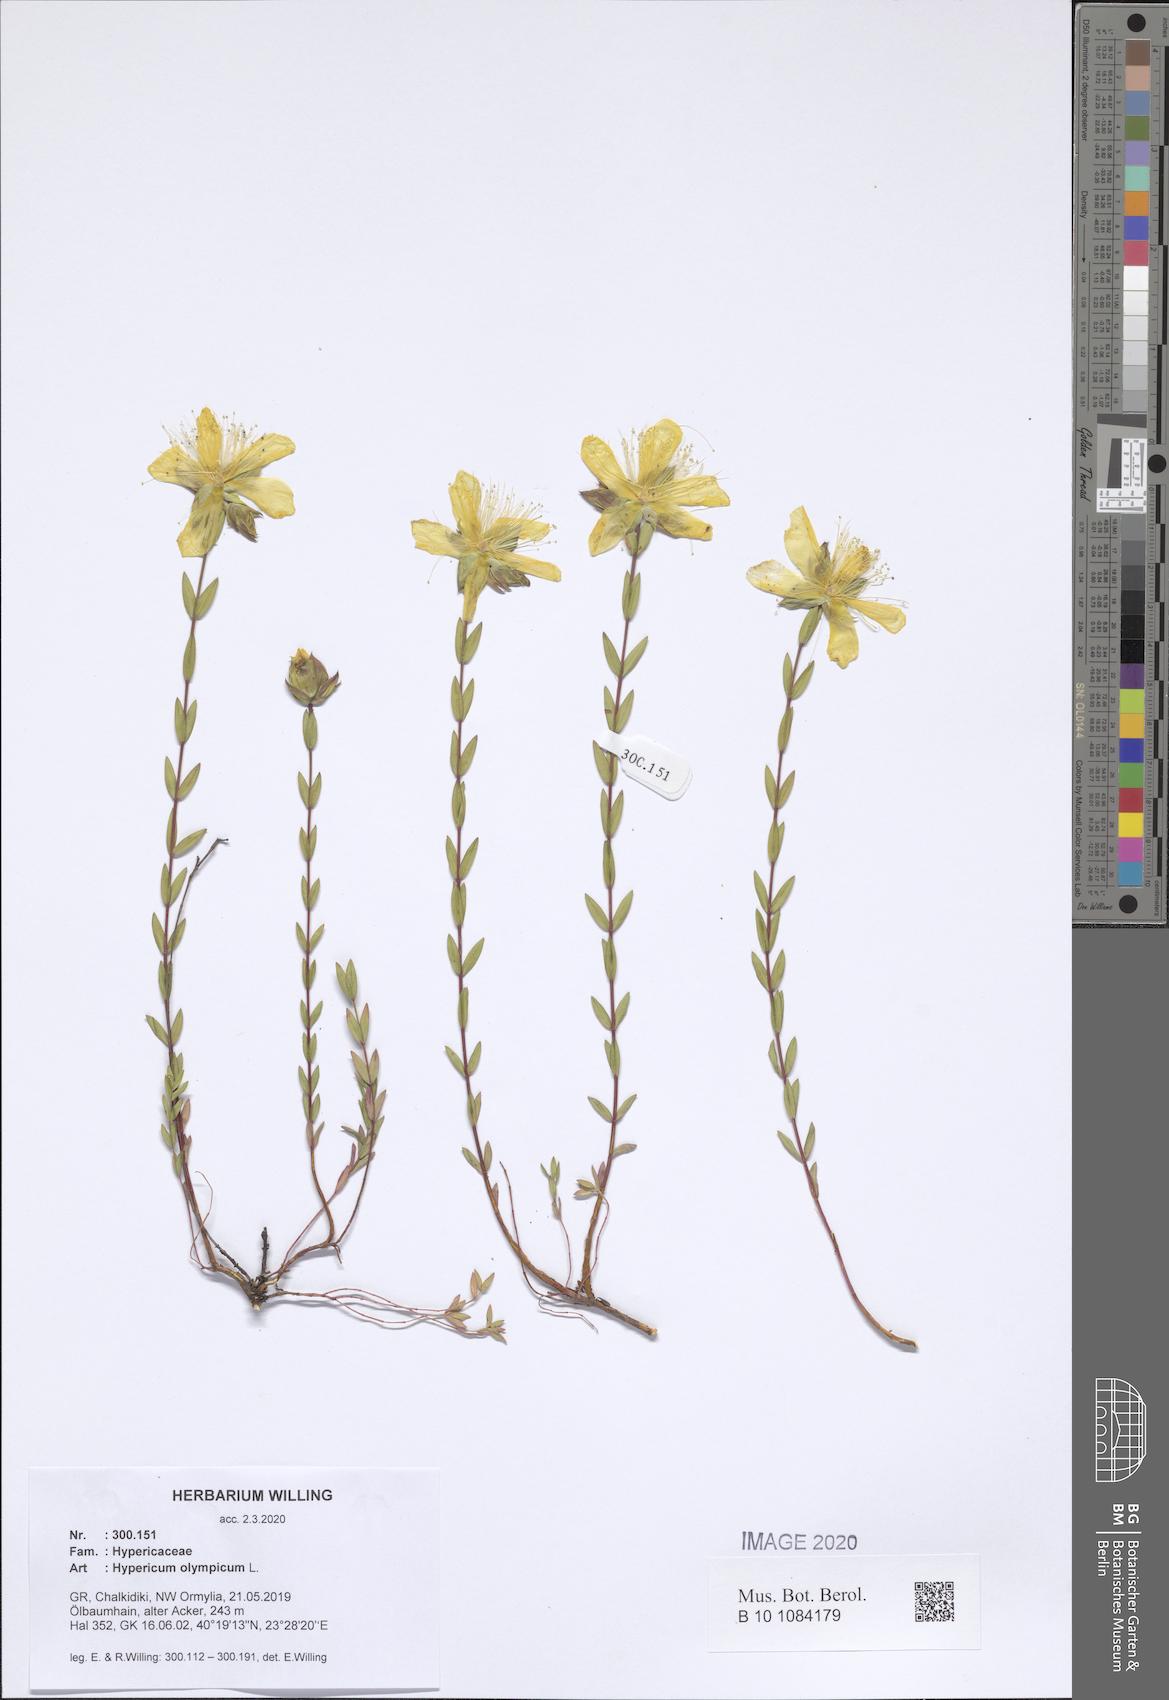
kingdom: Plantae
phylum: Tracheophyta
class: Magnoliopsida
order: Malpighiales
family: Hypericaceae
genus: Hypericum
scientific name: Hypericum olympicum
